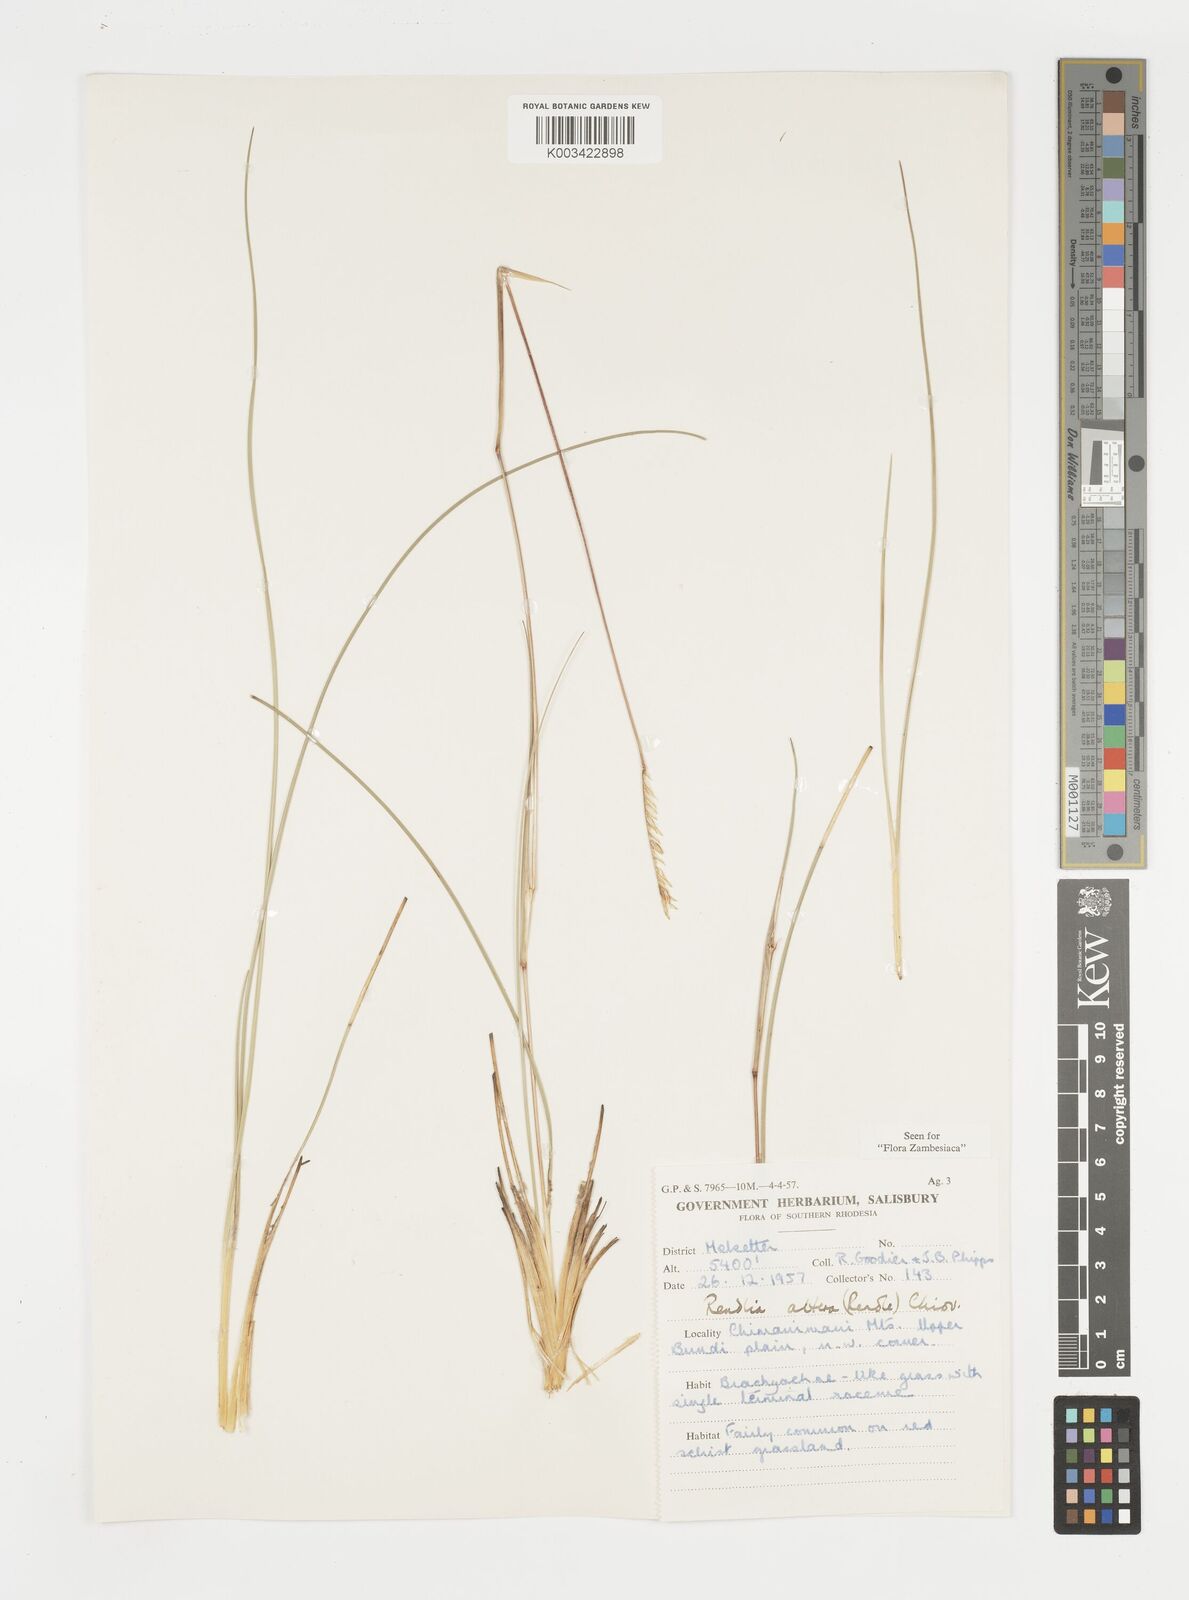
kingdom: Plantae
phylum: Tracheophyta
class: Liliopsida
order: Poales
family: Poaceae
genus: Microchloa
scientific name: Microchloa altera
